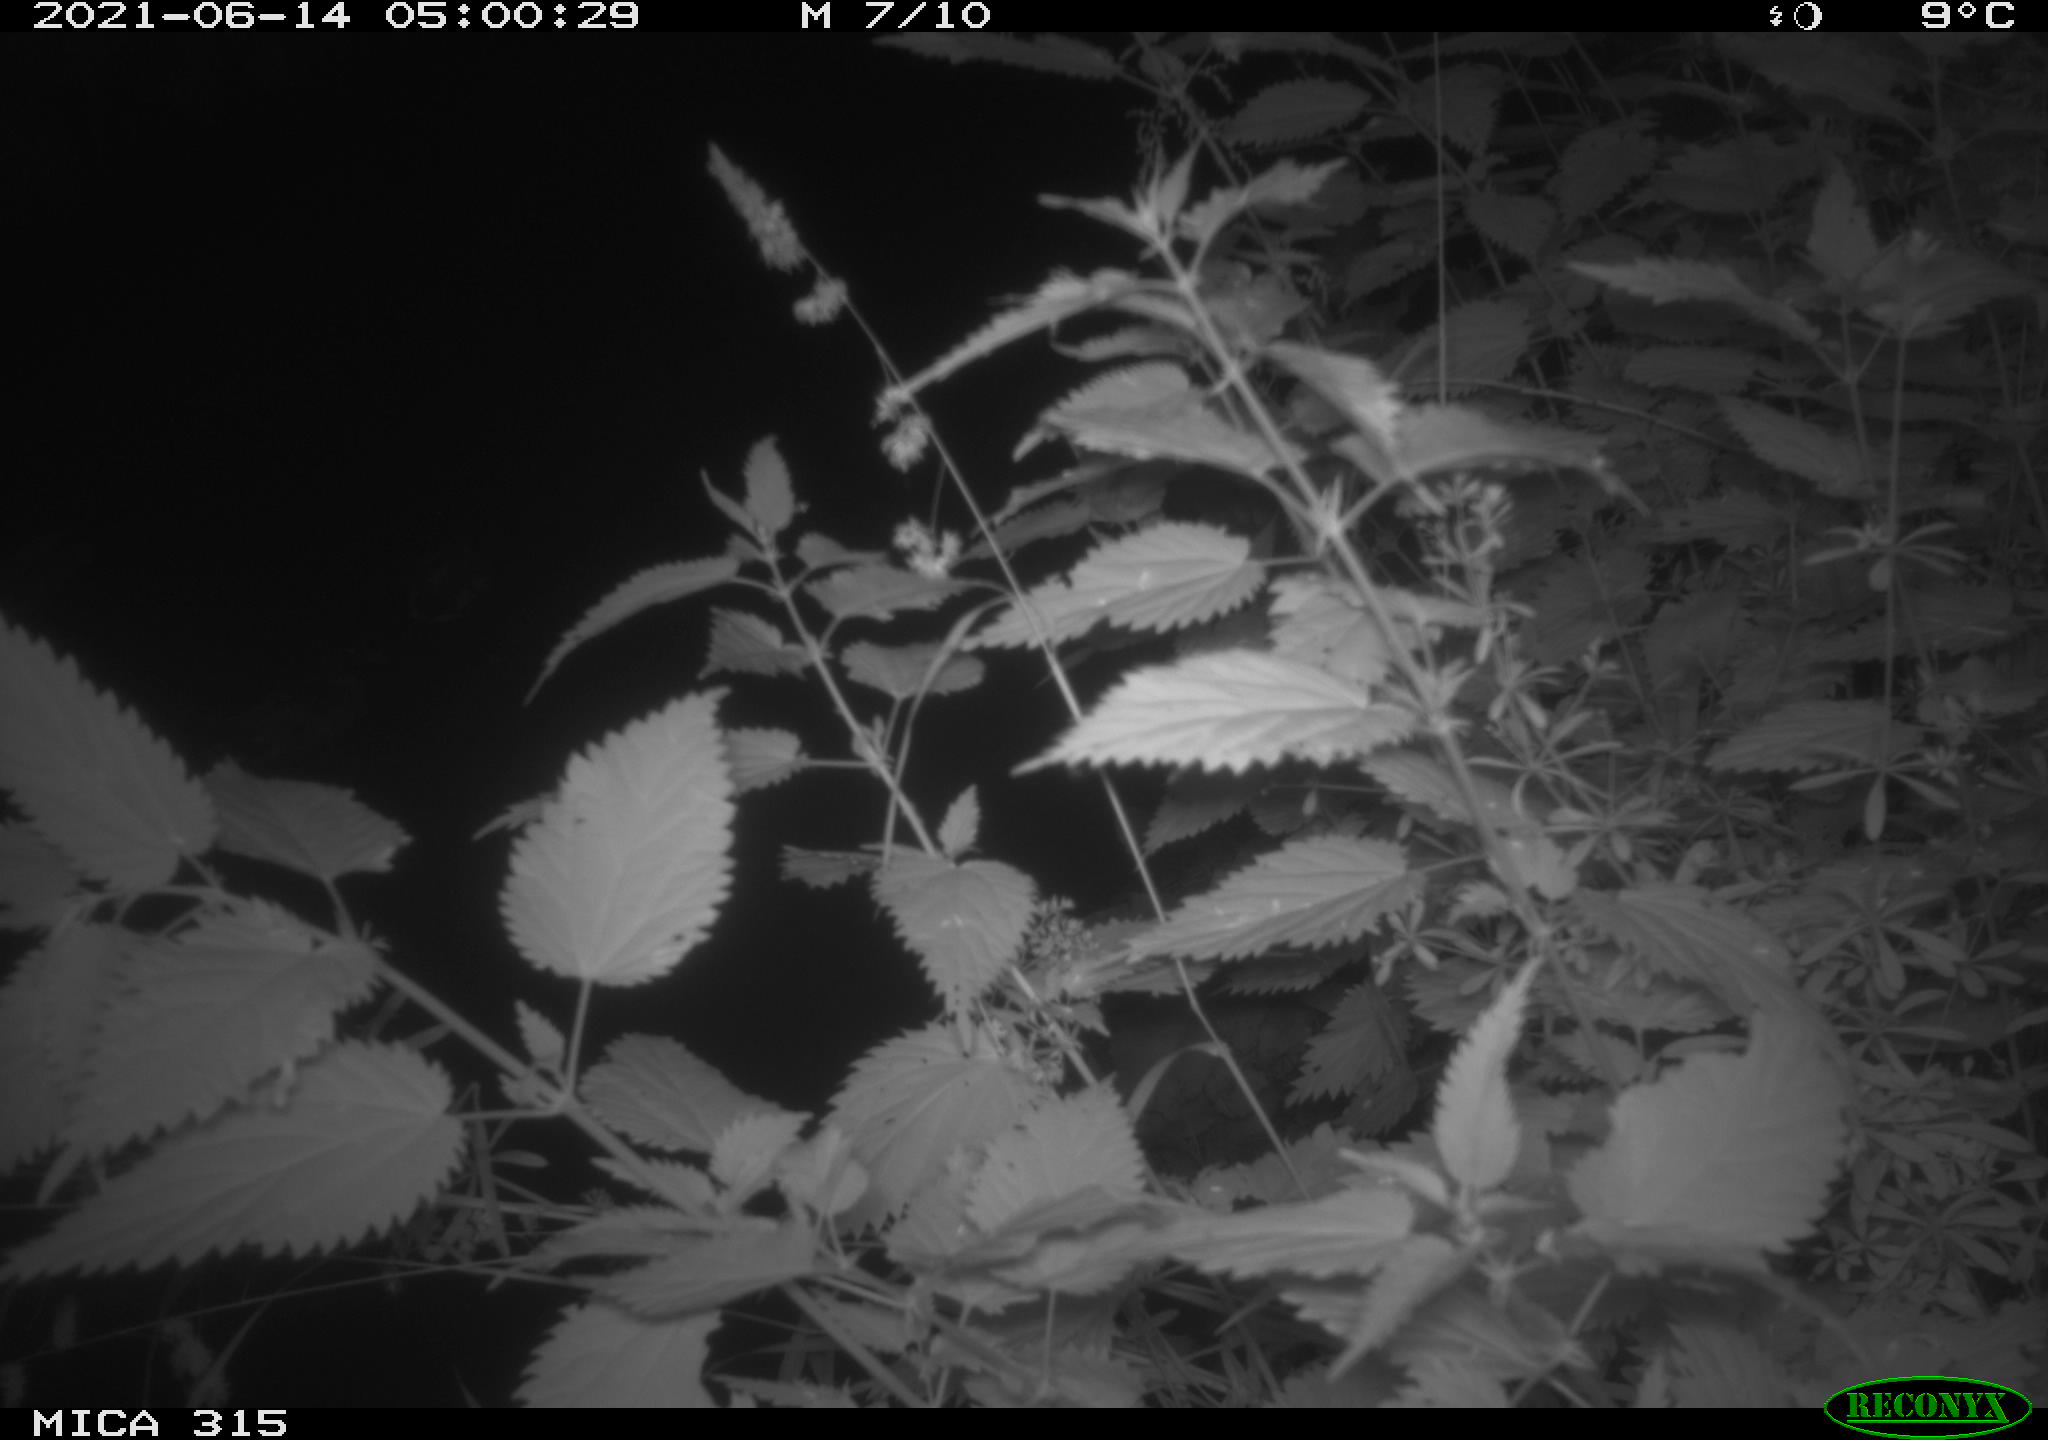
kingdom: Animalia
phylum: Chordata
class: Aves
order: Anseriformes
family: Anatidae
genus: Anas
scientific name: Anas platyrhynchos
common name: Mallard
